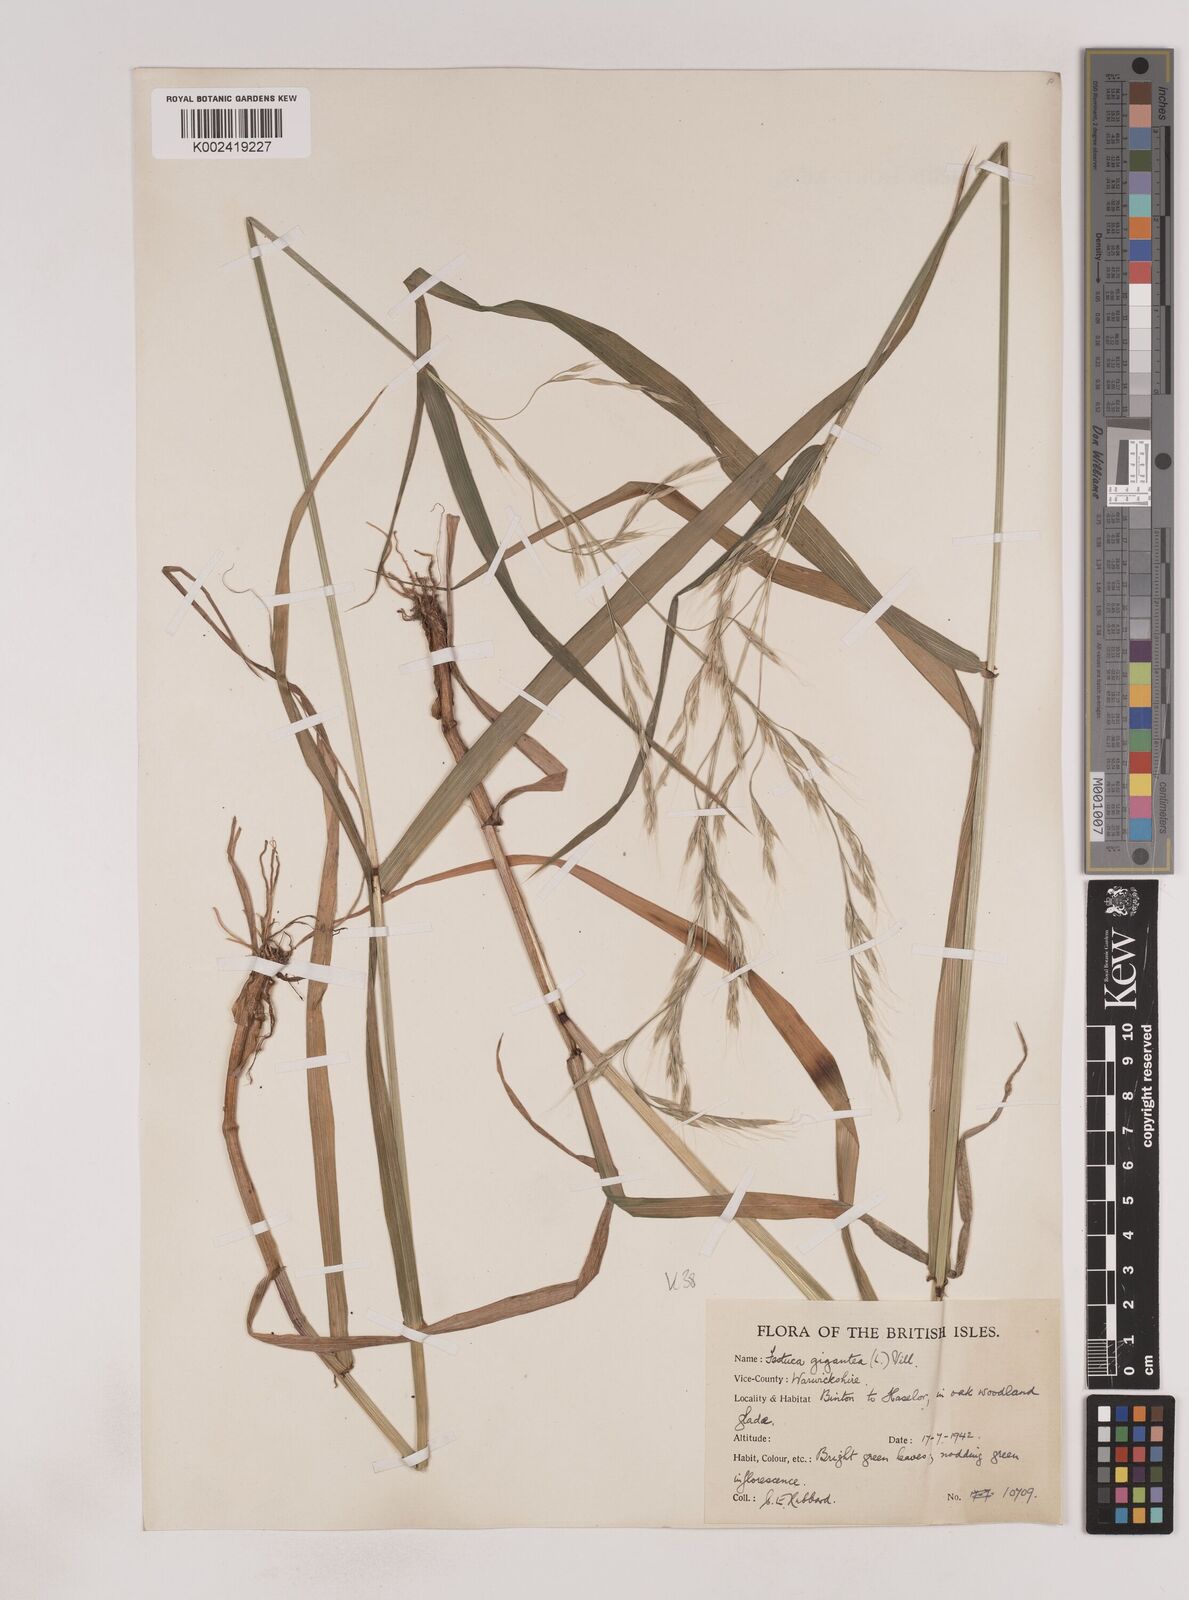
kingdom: Plantae
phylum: Tracheophyta
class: Liliopsida
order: Poales
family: Poaceae
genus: Lolium
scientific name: Lolium giganteum
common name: Giant fescue
